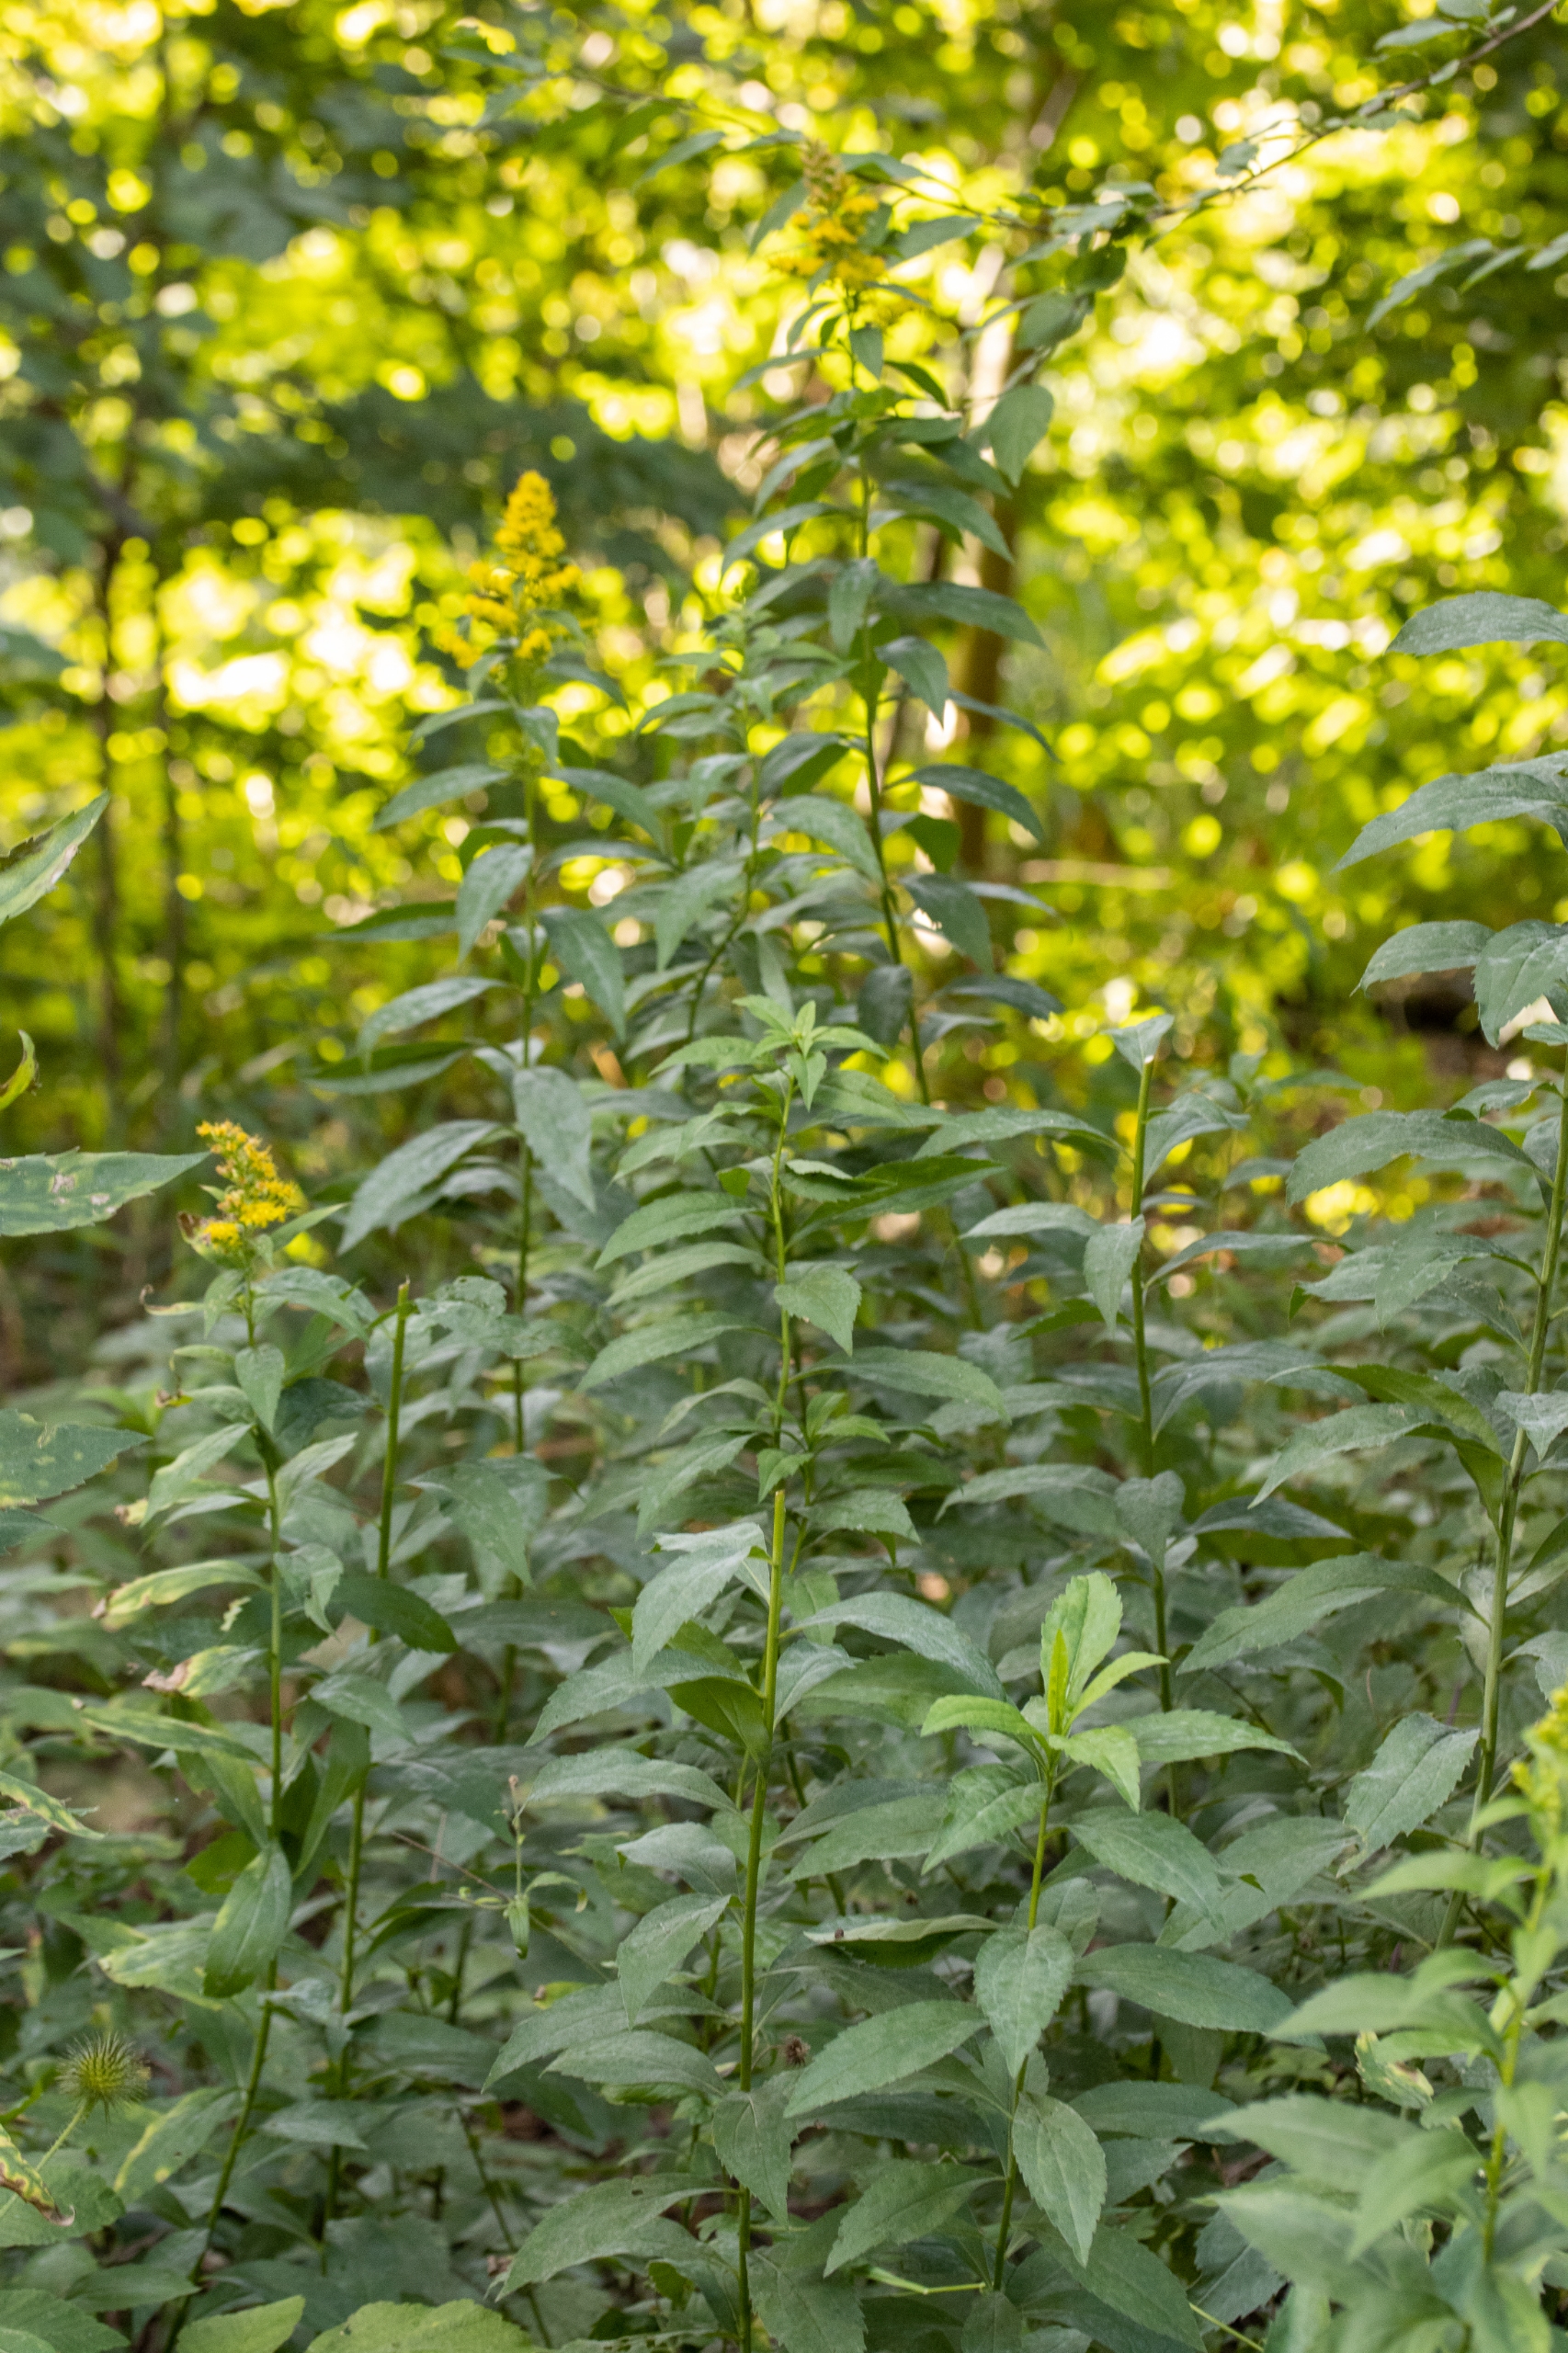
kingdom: Plantae
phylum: Tracheophyta
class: Magnoliopsida
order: Asterales
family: Asteraceae
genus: Solidago
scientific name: Solidago gigantea
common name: Sildig gyldenris
